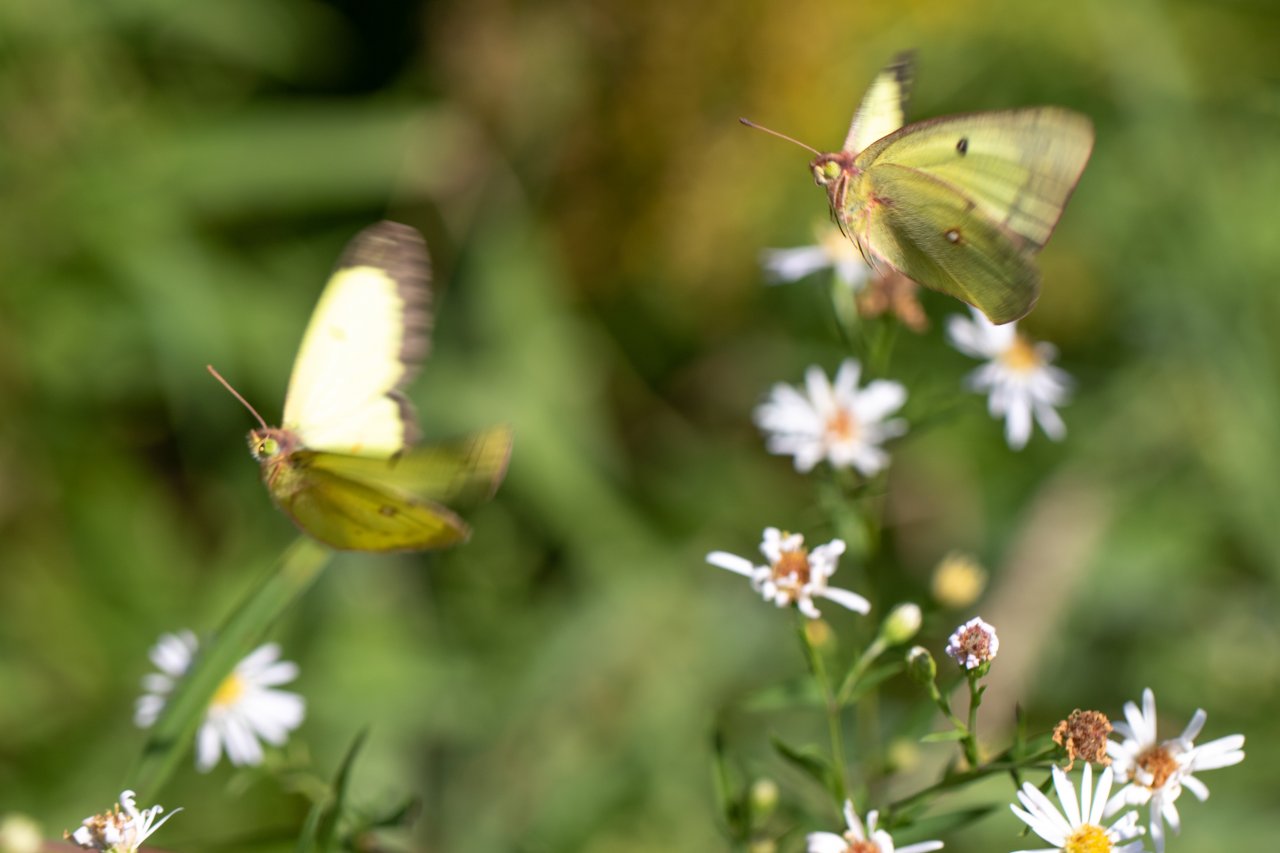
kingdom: Animalia
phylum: Arthropoda
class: Insecta
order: Lepidoptera
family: Pieridae
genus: Colias
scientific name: Colias philodice
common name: Clouded Sulphur
